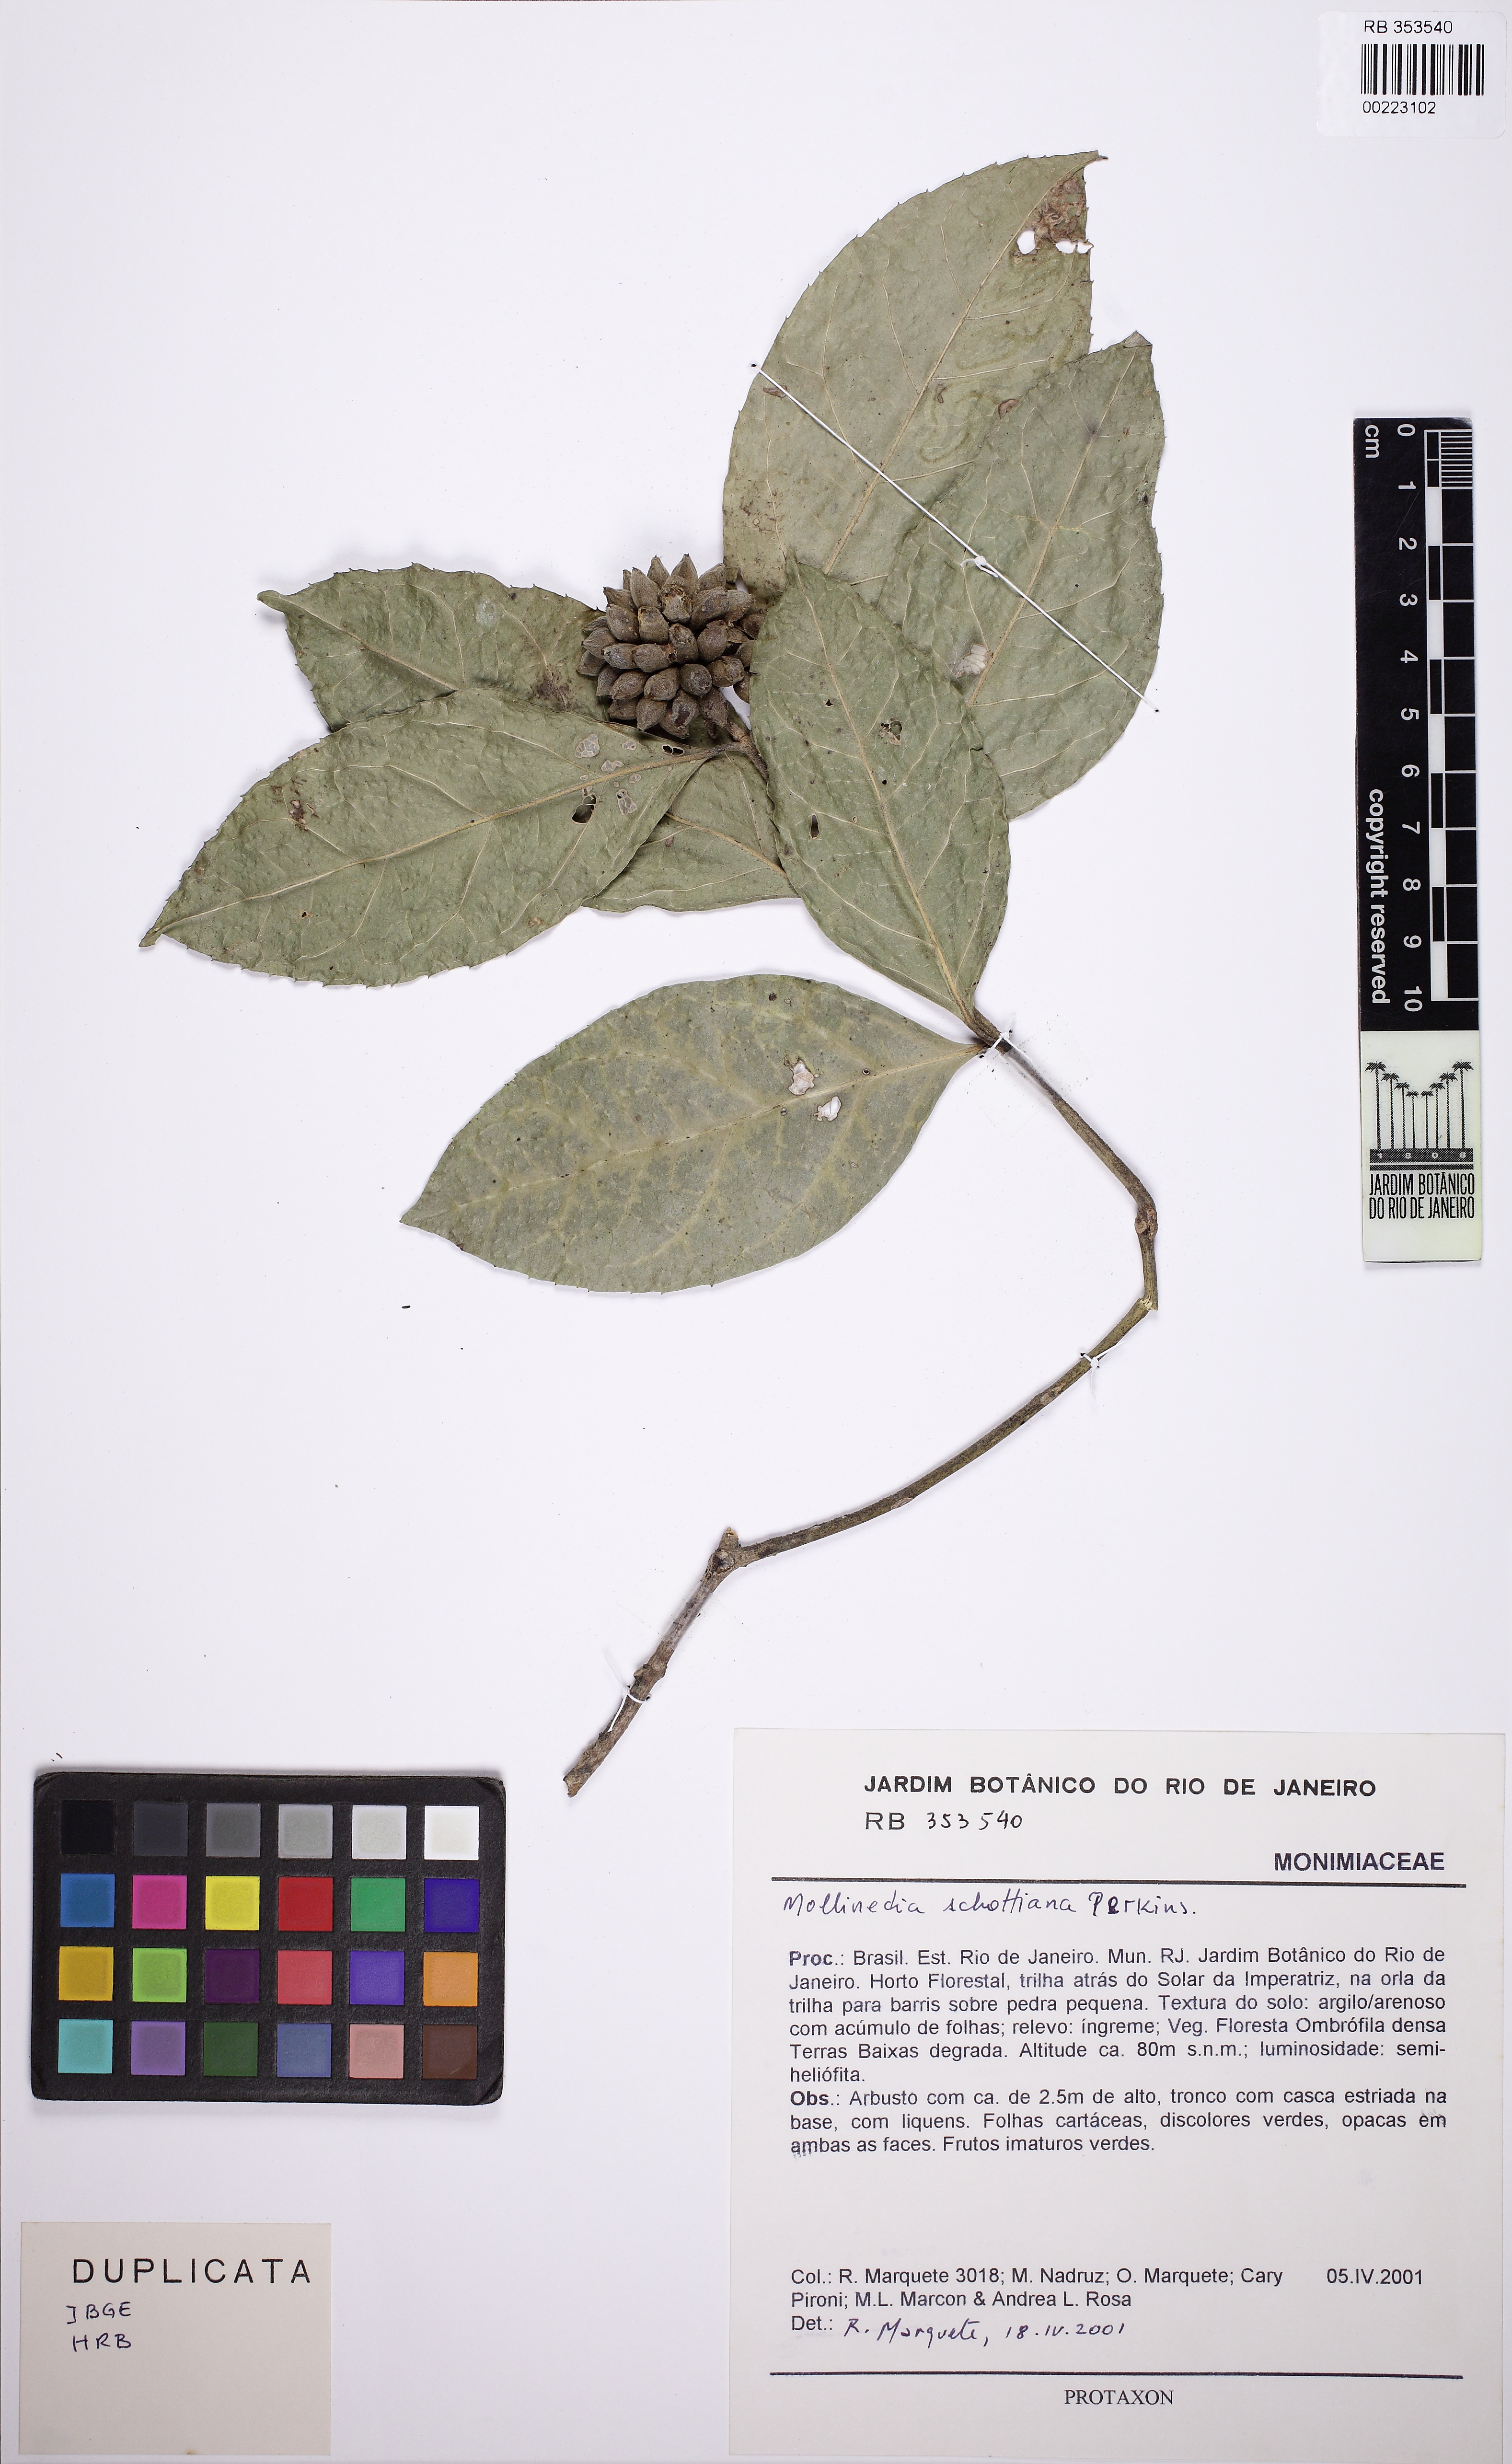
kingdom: Plantae
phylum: Tracheophyta
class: Magnoliopsida
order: Laurales
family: Monimiaceae
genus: Mollinedia
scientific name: Mollinedia umbellata
